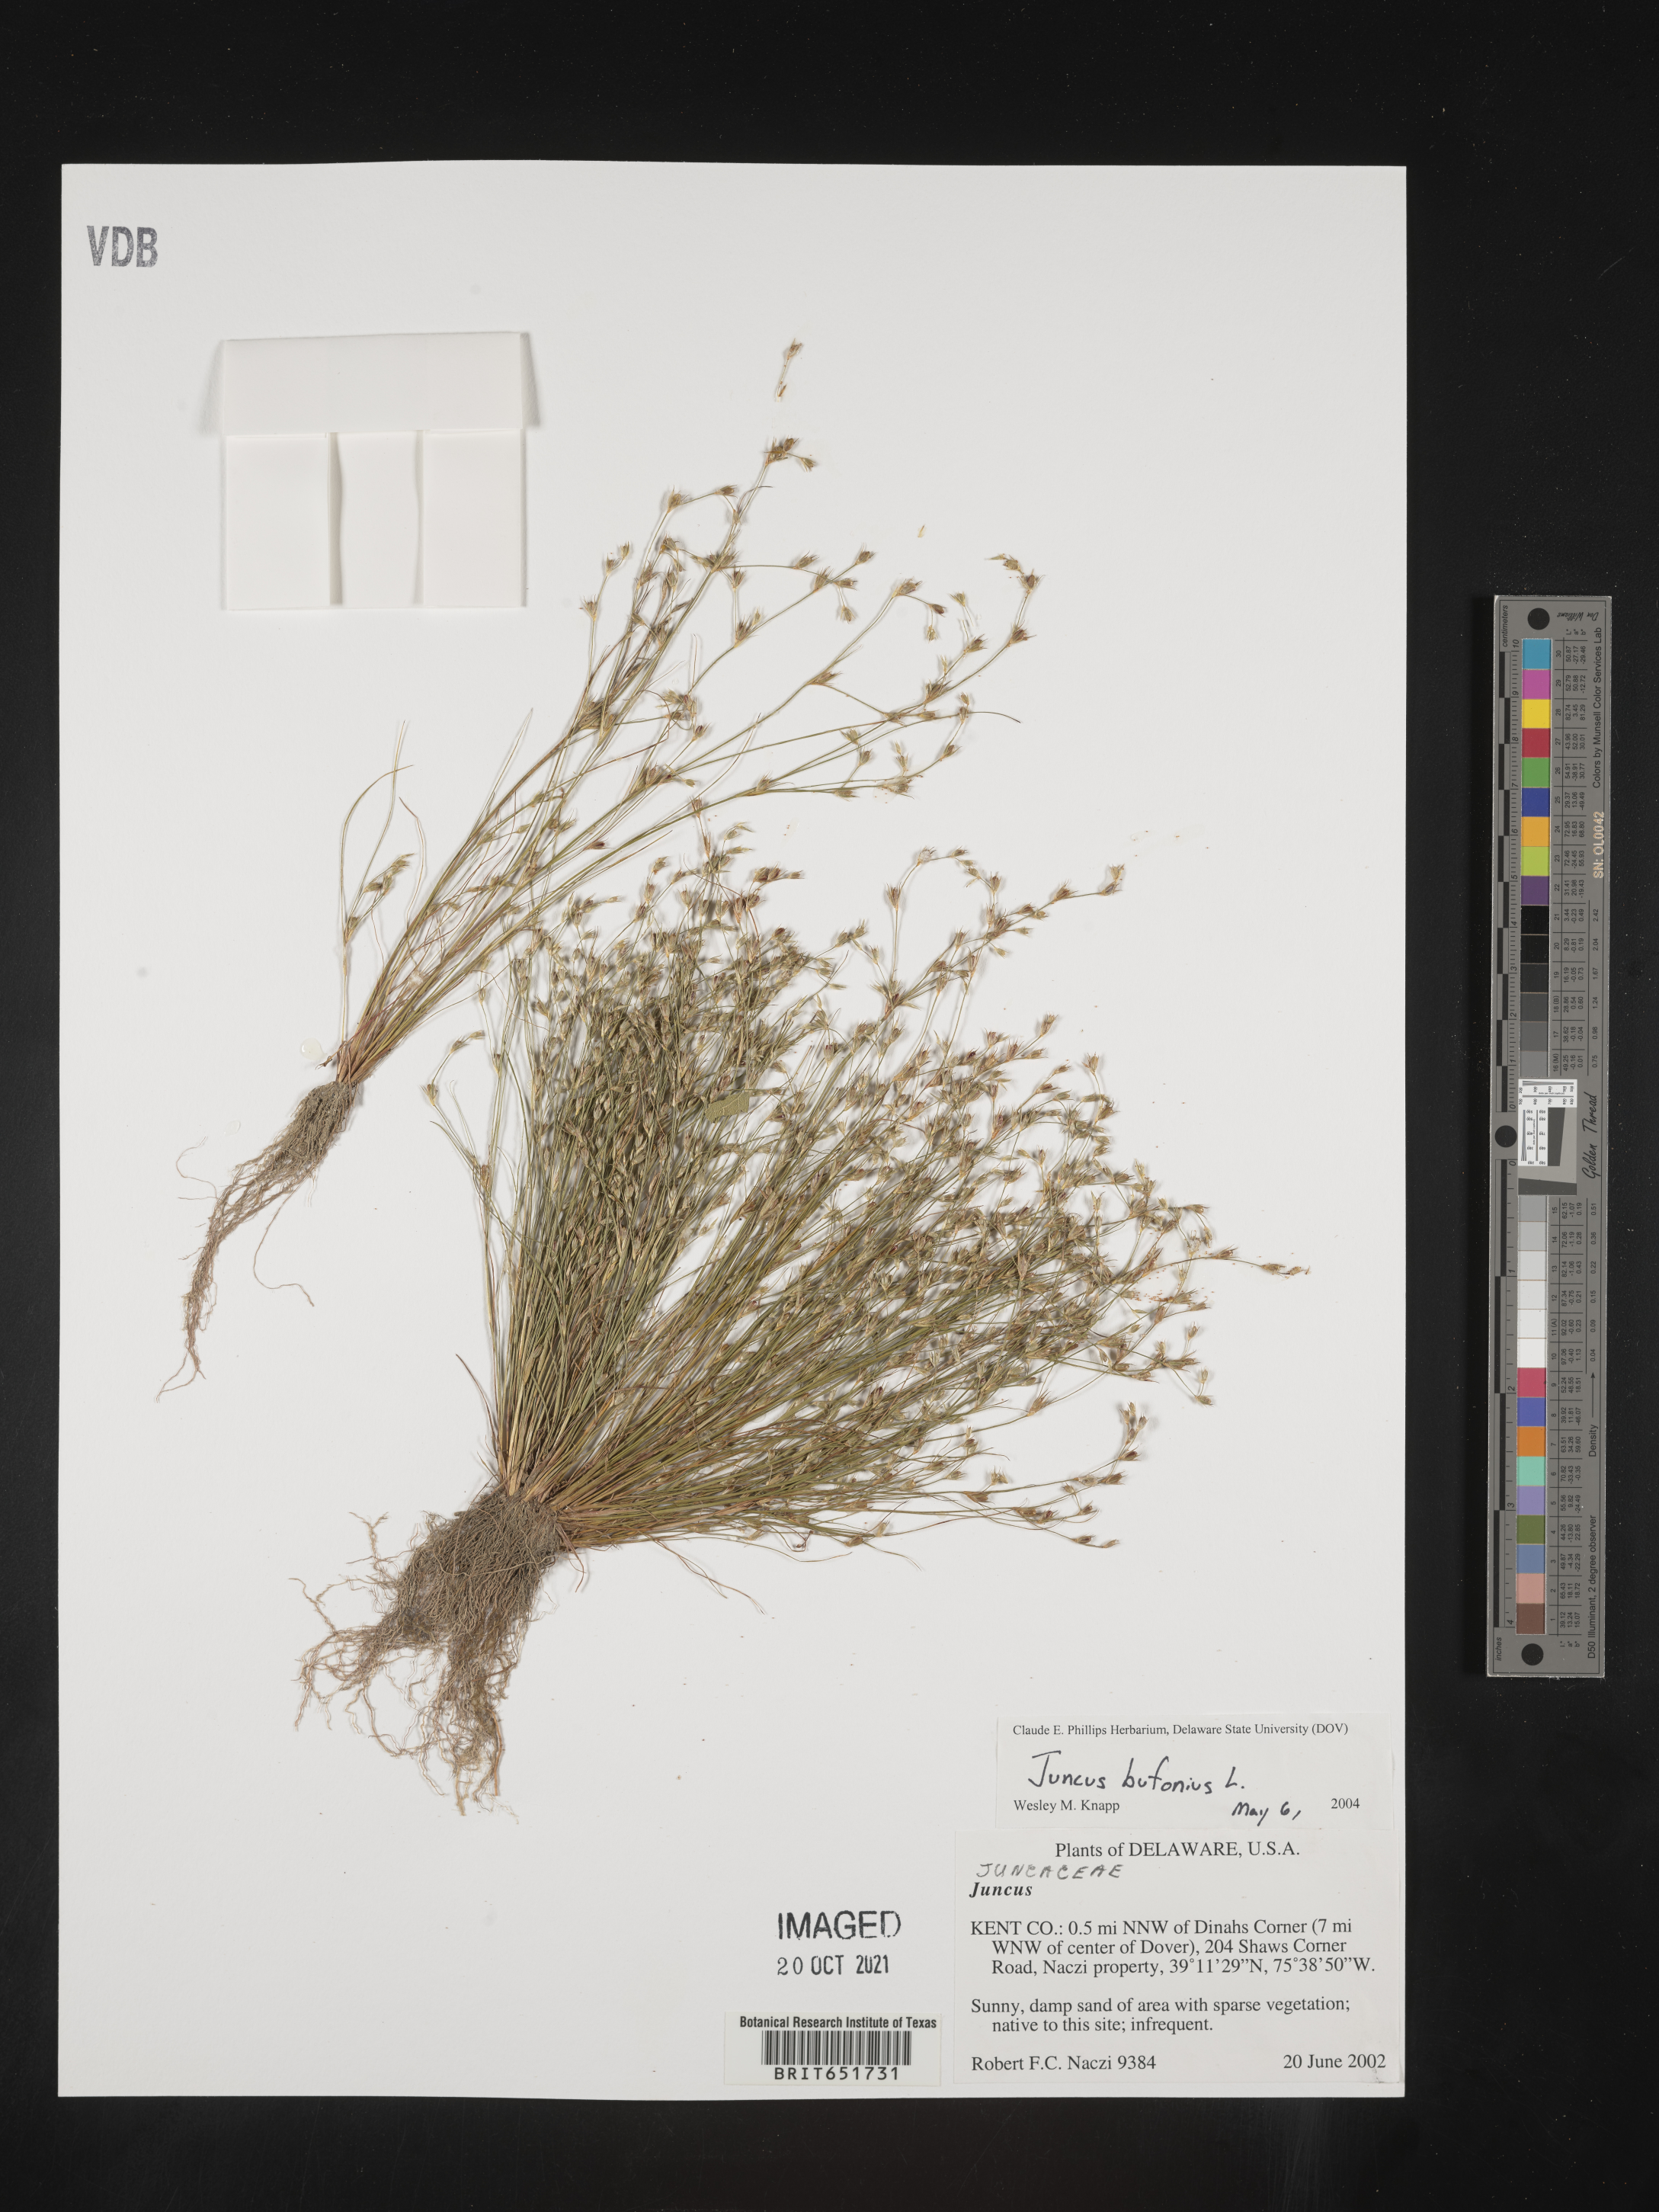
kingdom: Plantae
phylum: Tracheophyta
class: Liliopsida
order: Poales
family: Juncaceae
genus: Juncus
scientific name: Juncus bufonius
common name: Toad rush
